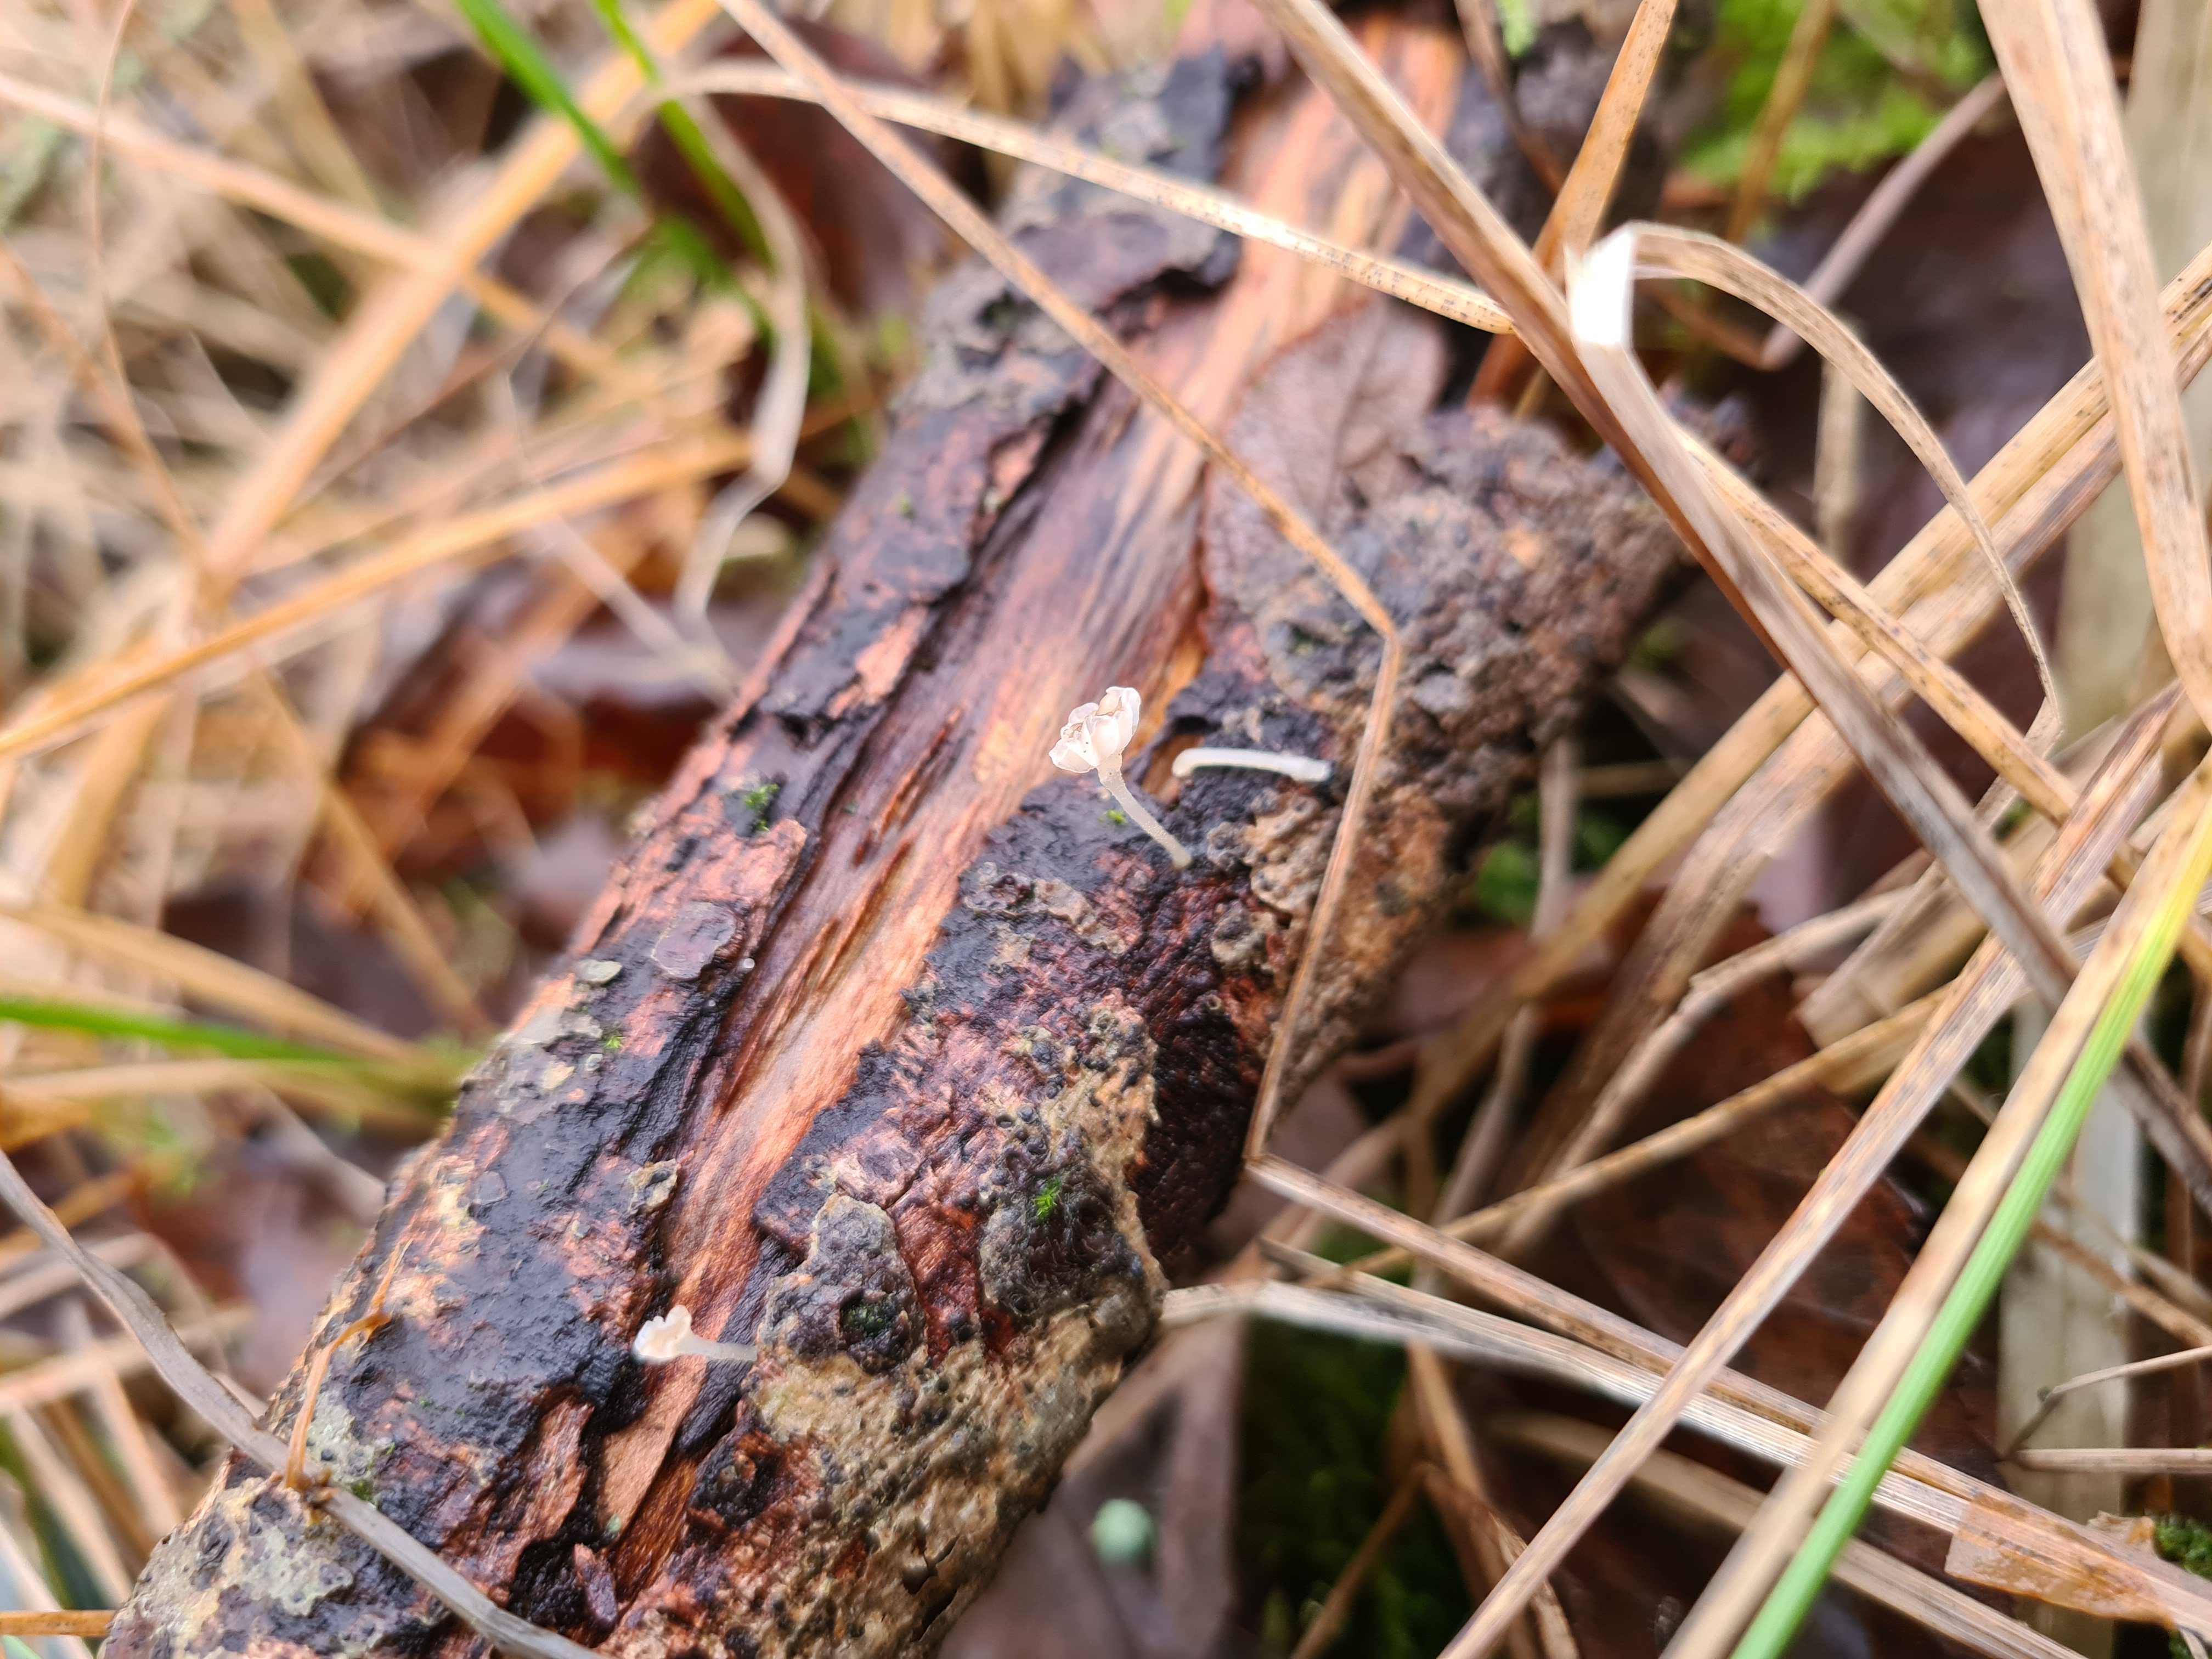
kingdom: Fungi
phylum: Basidiomycota
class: Agaricomycetes
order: Agaricales
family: Porotheleaceae
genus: Phloeomana
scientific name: Phloeomana speirea
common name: kvist-huesvamp
